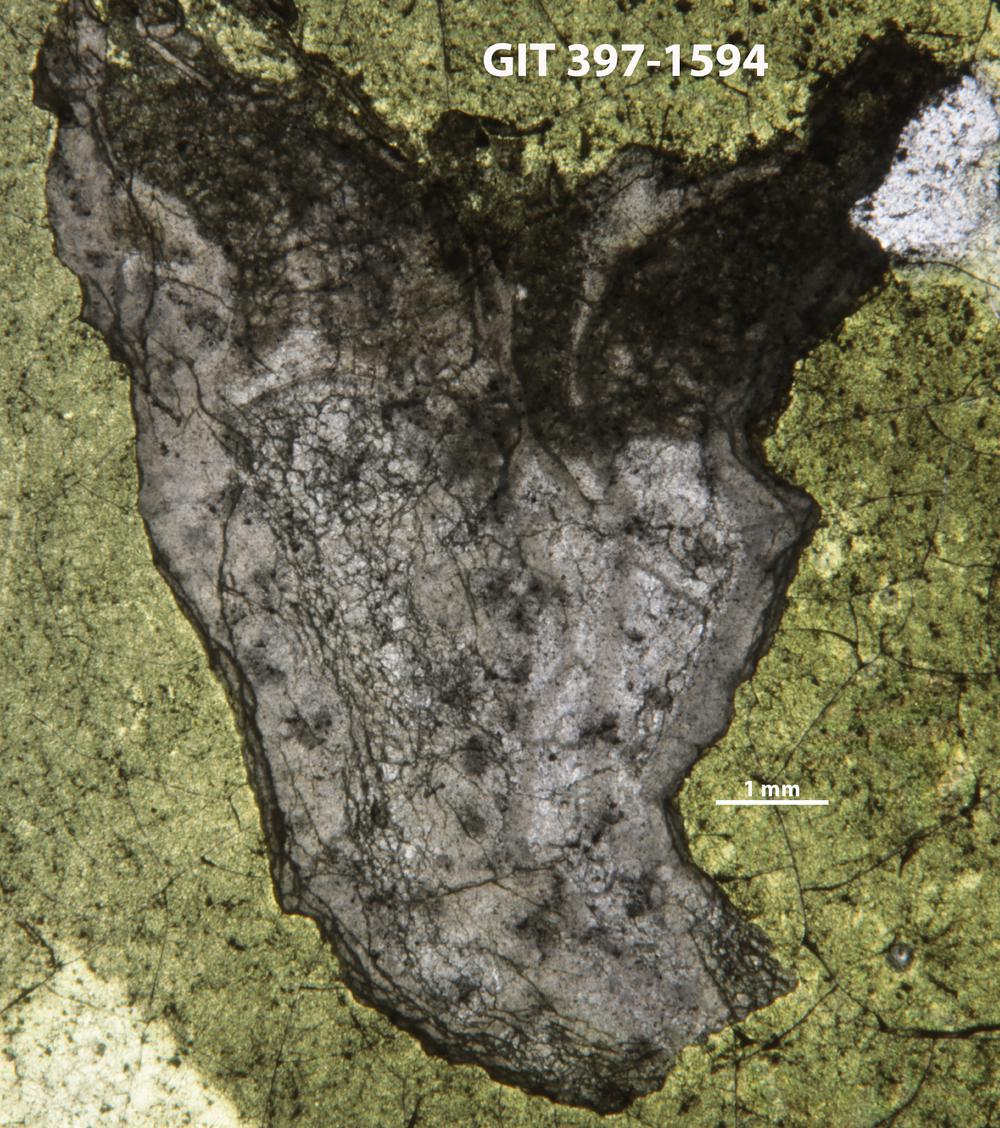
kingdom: Animalia
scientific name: Animalia
